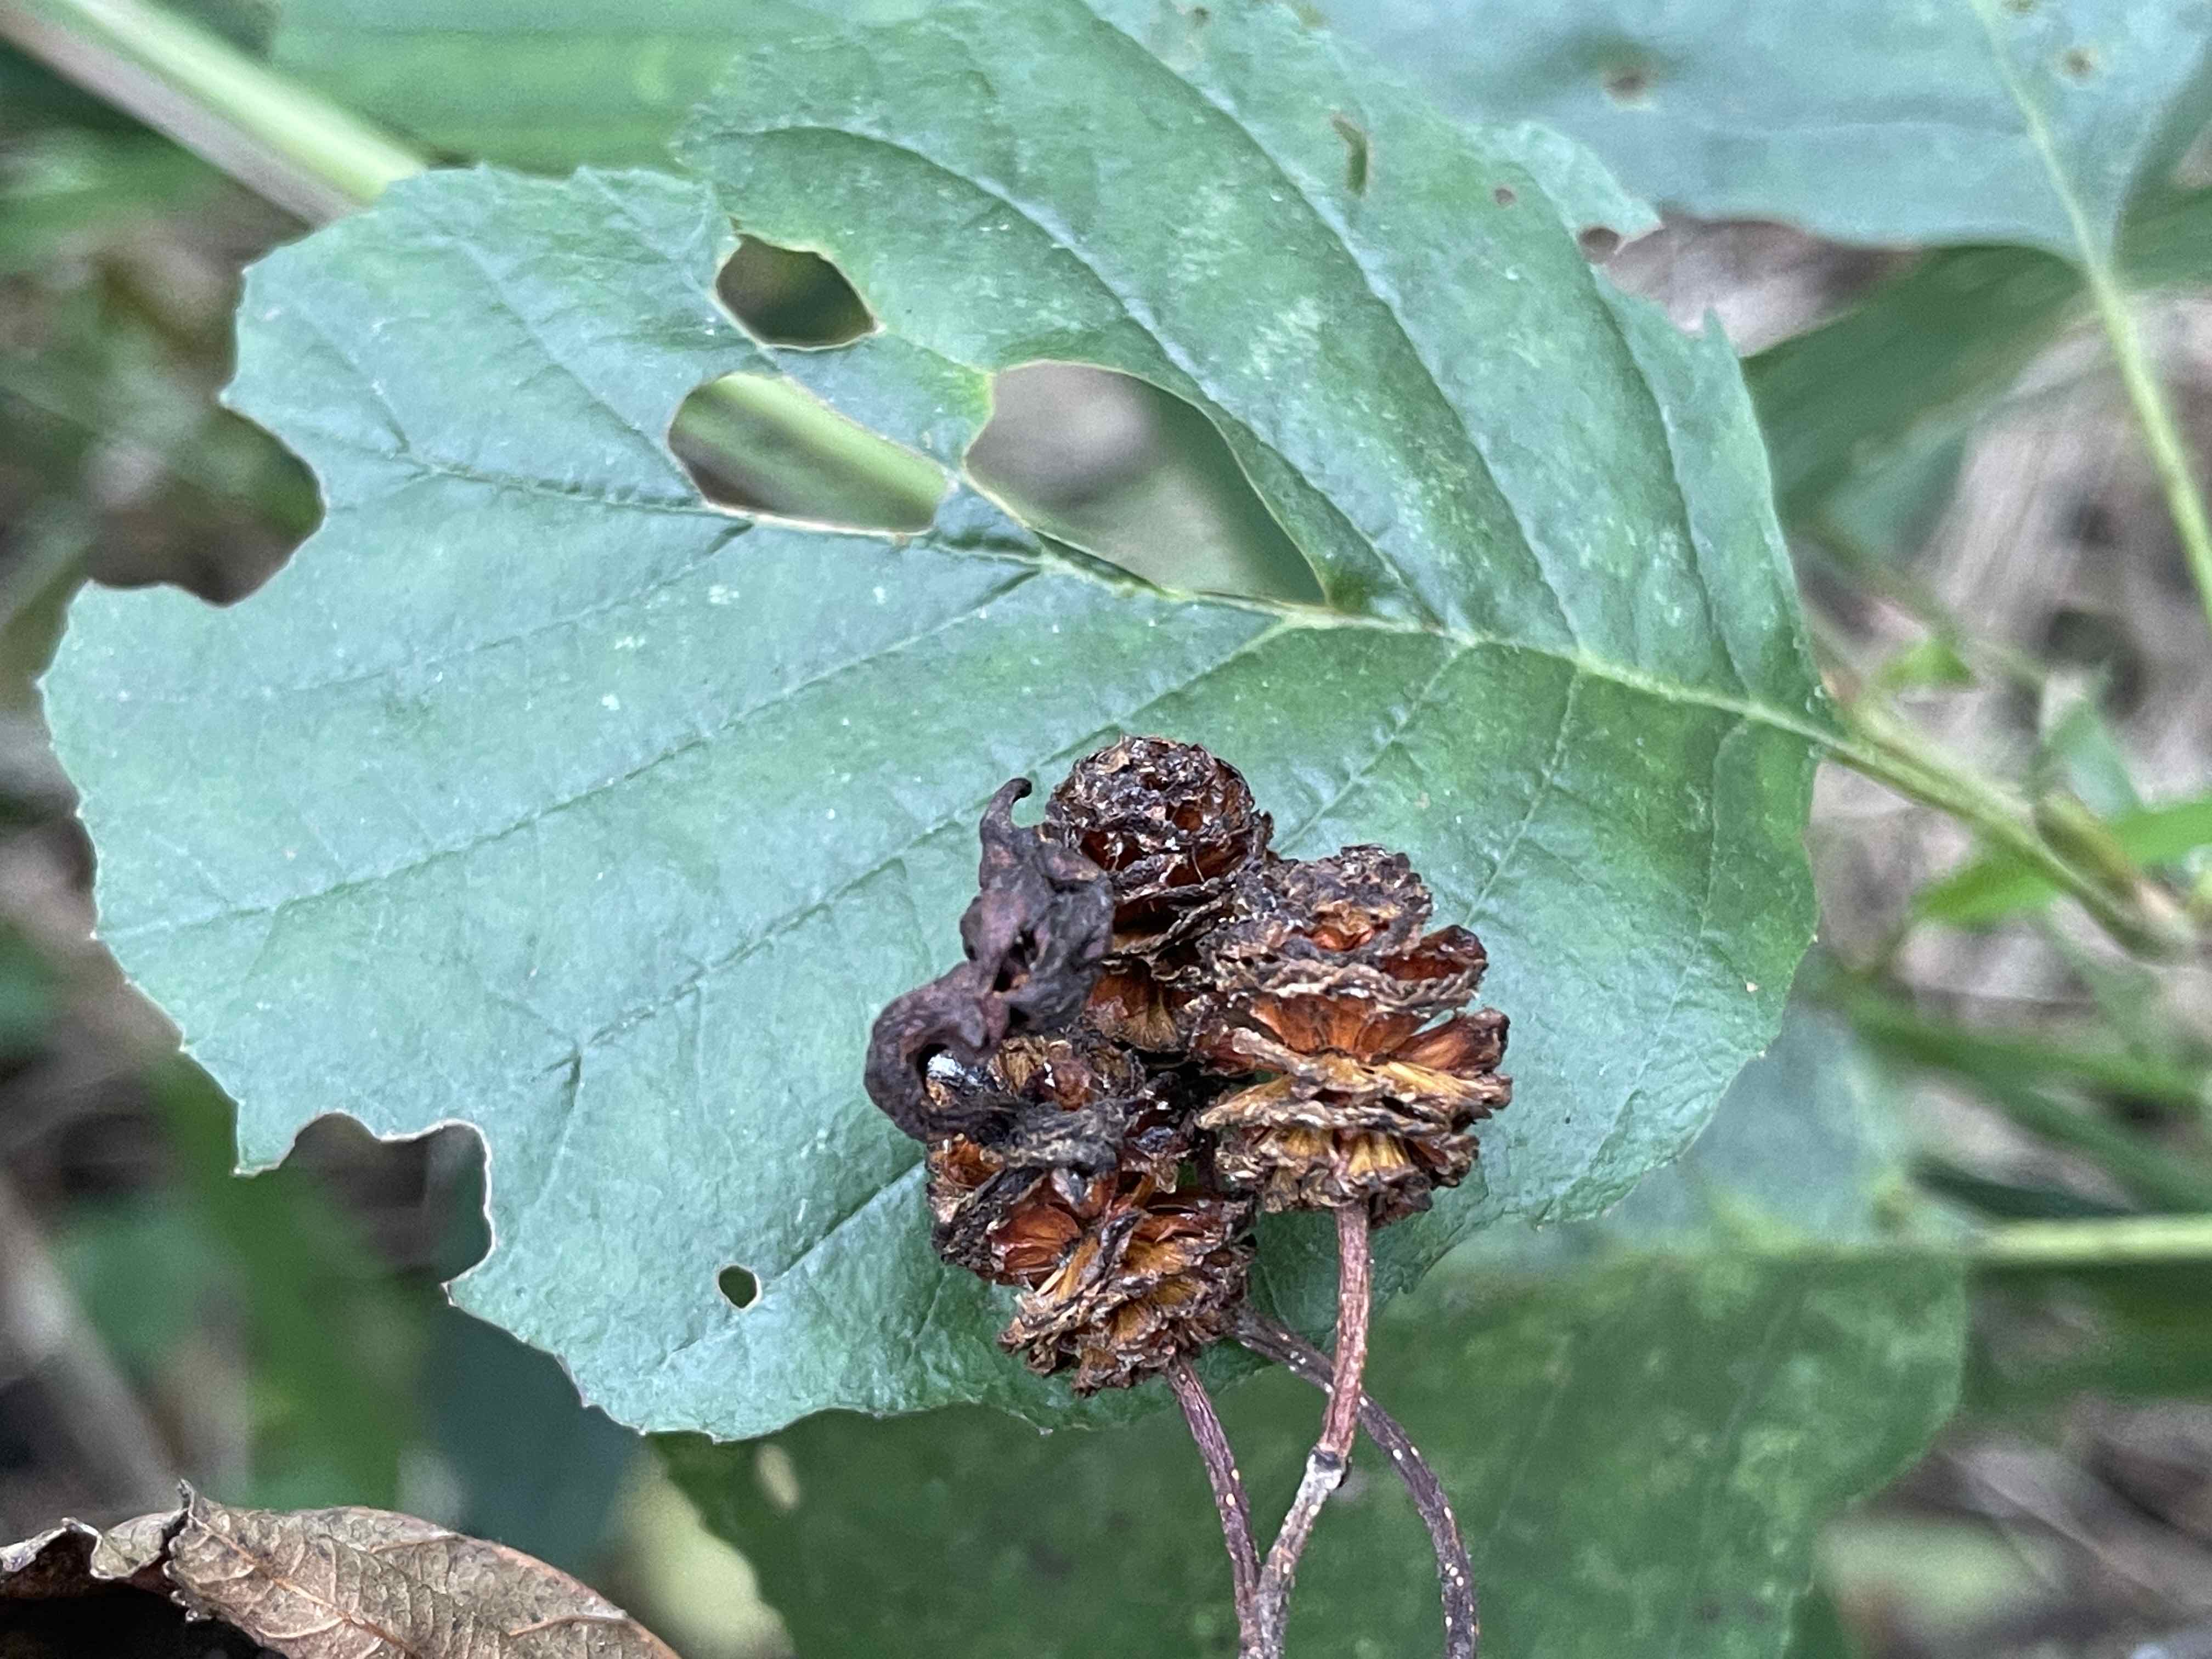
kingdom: Fungi
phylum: Ascomycota
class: Taphrinomycetes
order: Taphrinales
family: Taphrinaceae
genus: Taphrina
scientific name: Taphrina alni
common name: Alder tongue
